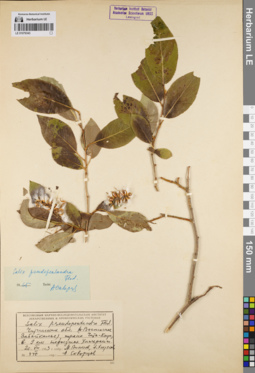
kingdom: Plantae
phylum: Tracheophyta
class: Magnoliopsida
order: Malpighiales
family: Salicaceae
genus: Salix
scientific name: Salix pseudopentandra
